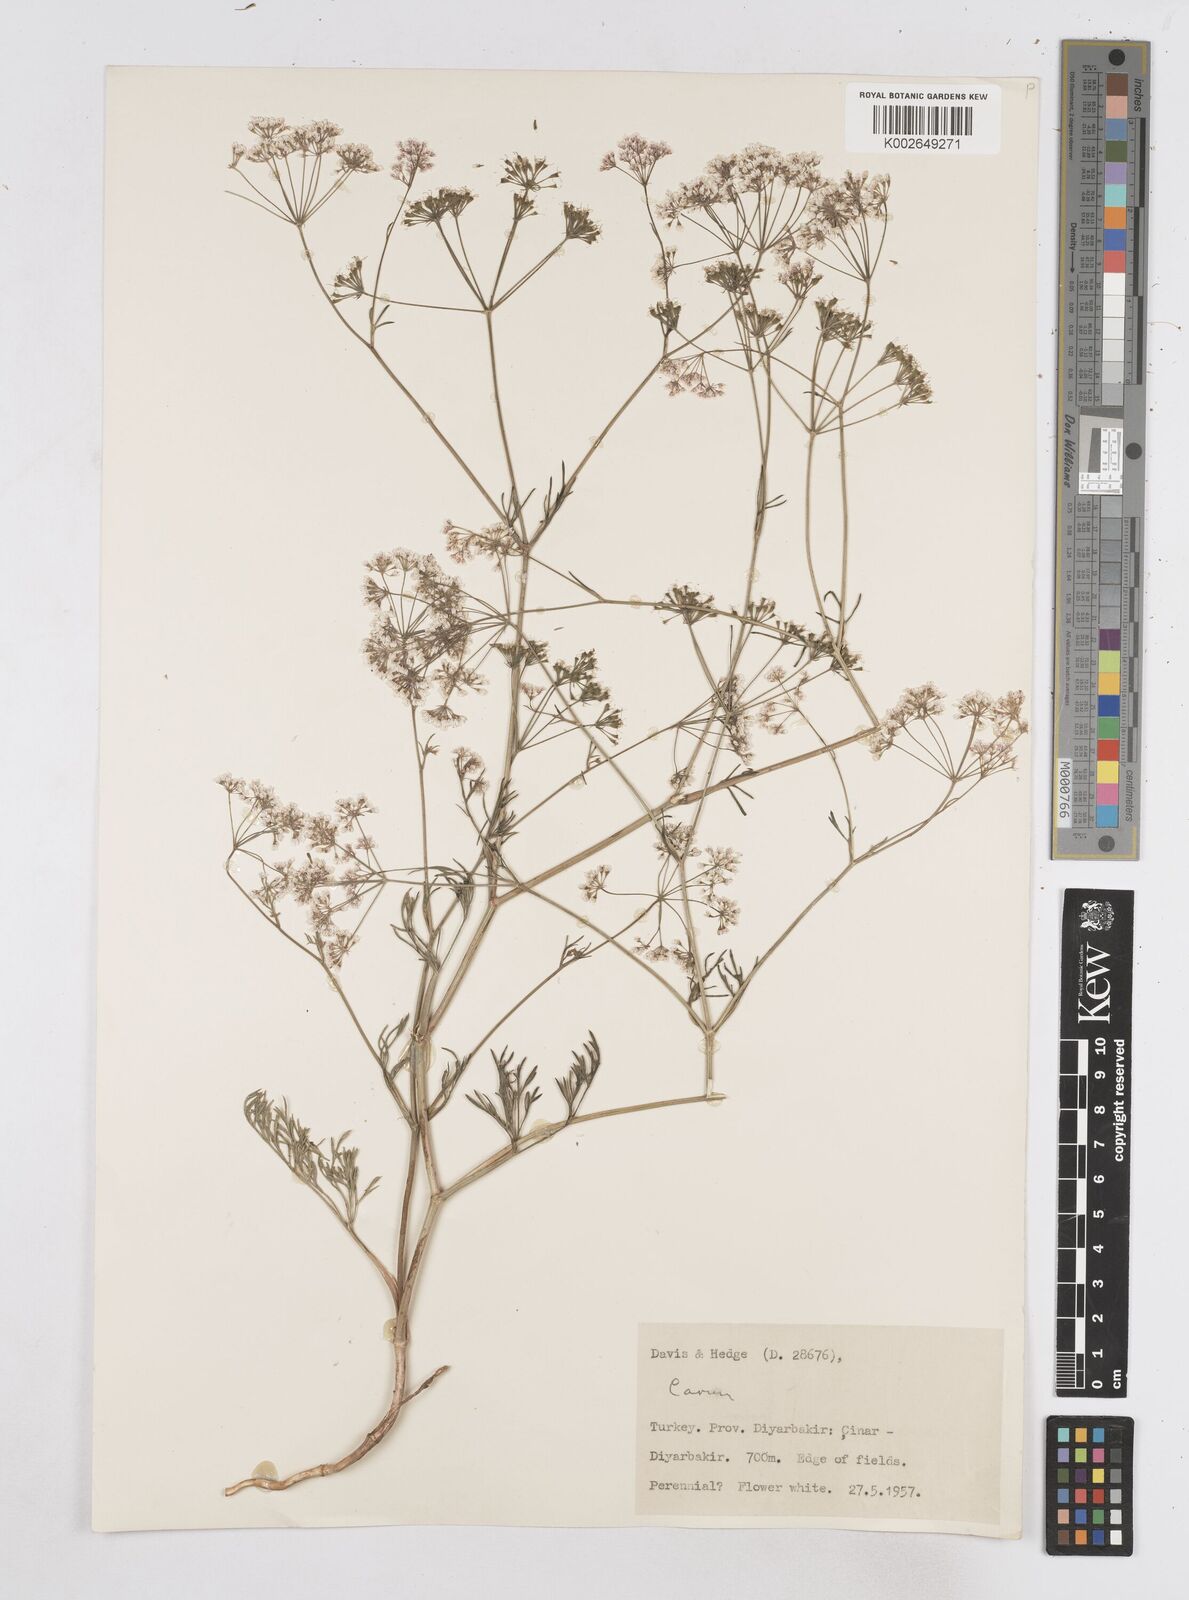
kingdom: Plantae
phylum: Tracheophyta
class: Magnoliopsida
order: Apiales
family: Apiaceae
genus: Bunium
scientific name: Bunium
